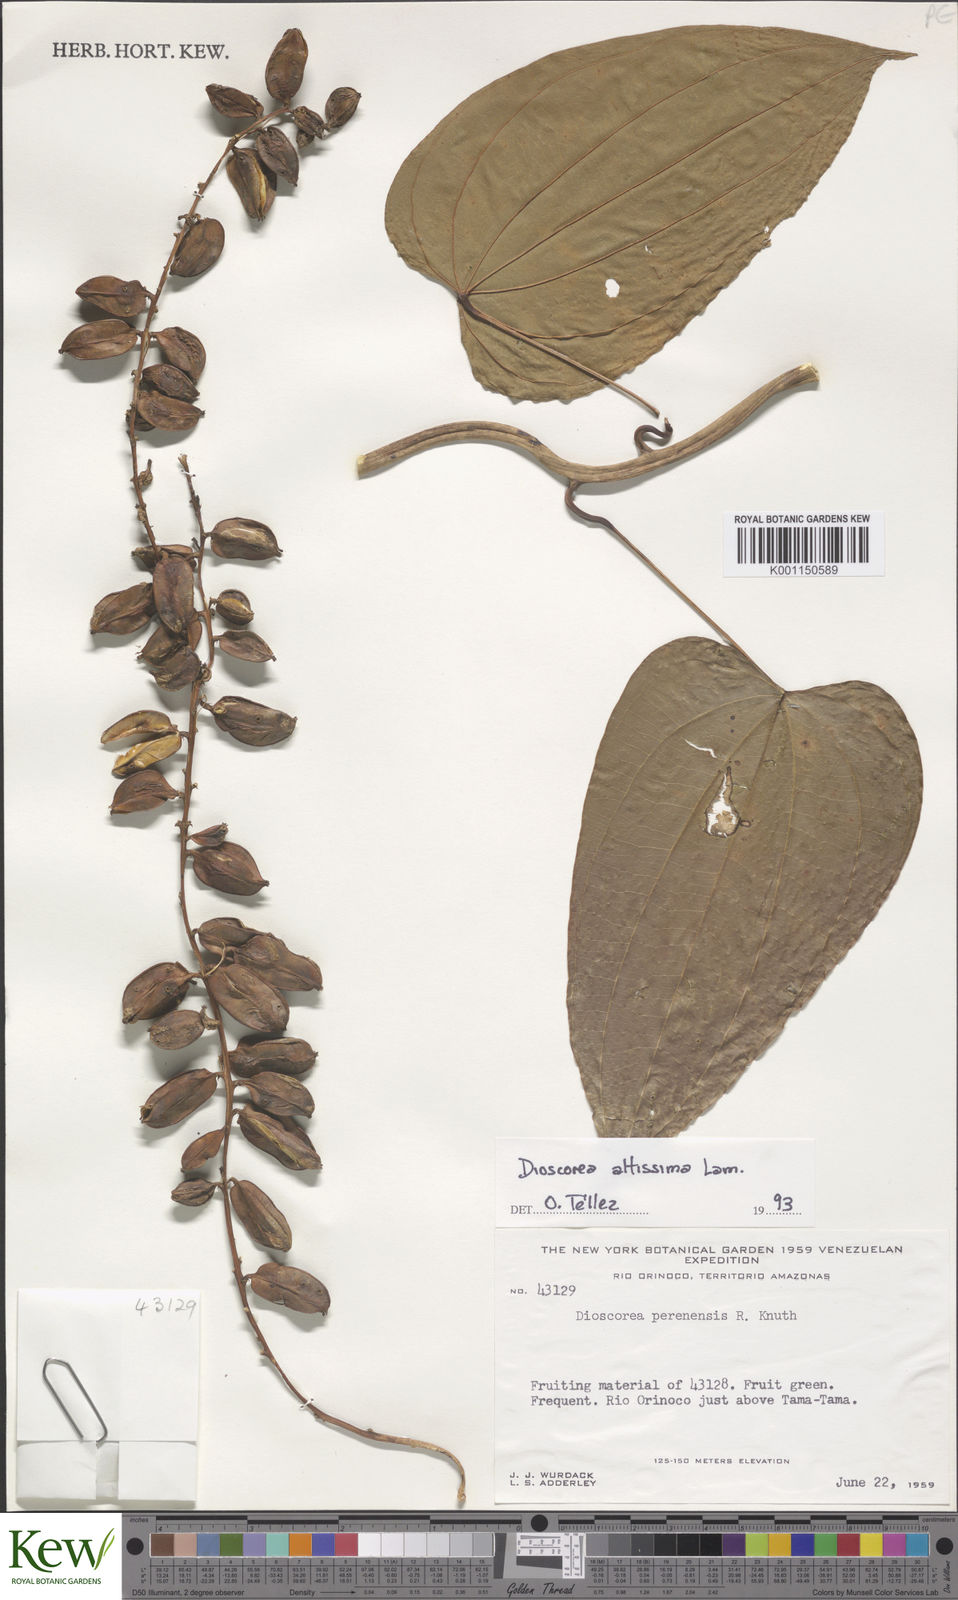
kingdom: Plantae
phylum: Tracheophyta
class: Liliopsida
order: Dioscoreales
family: Dioscoreaceae
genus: Dioscorea
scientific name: Dioscorea perenensis
